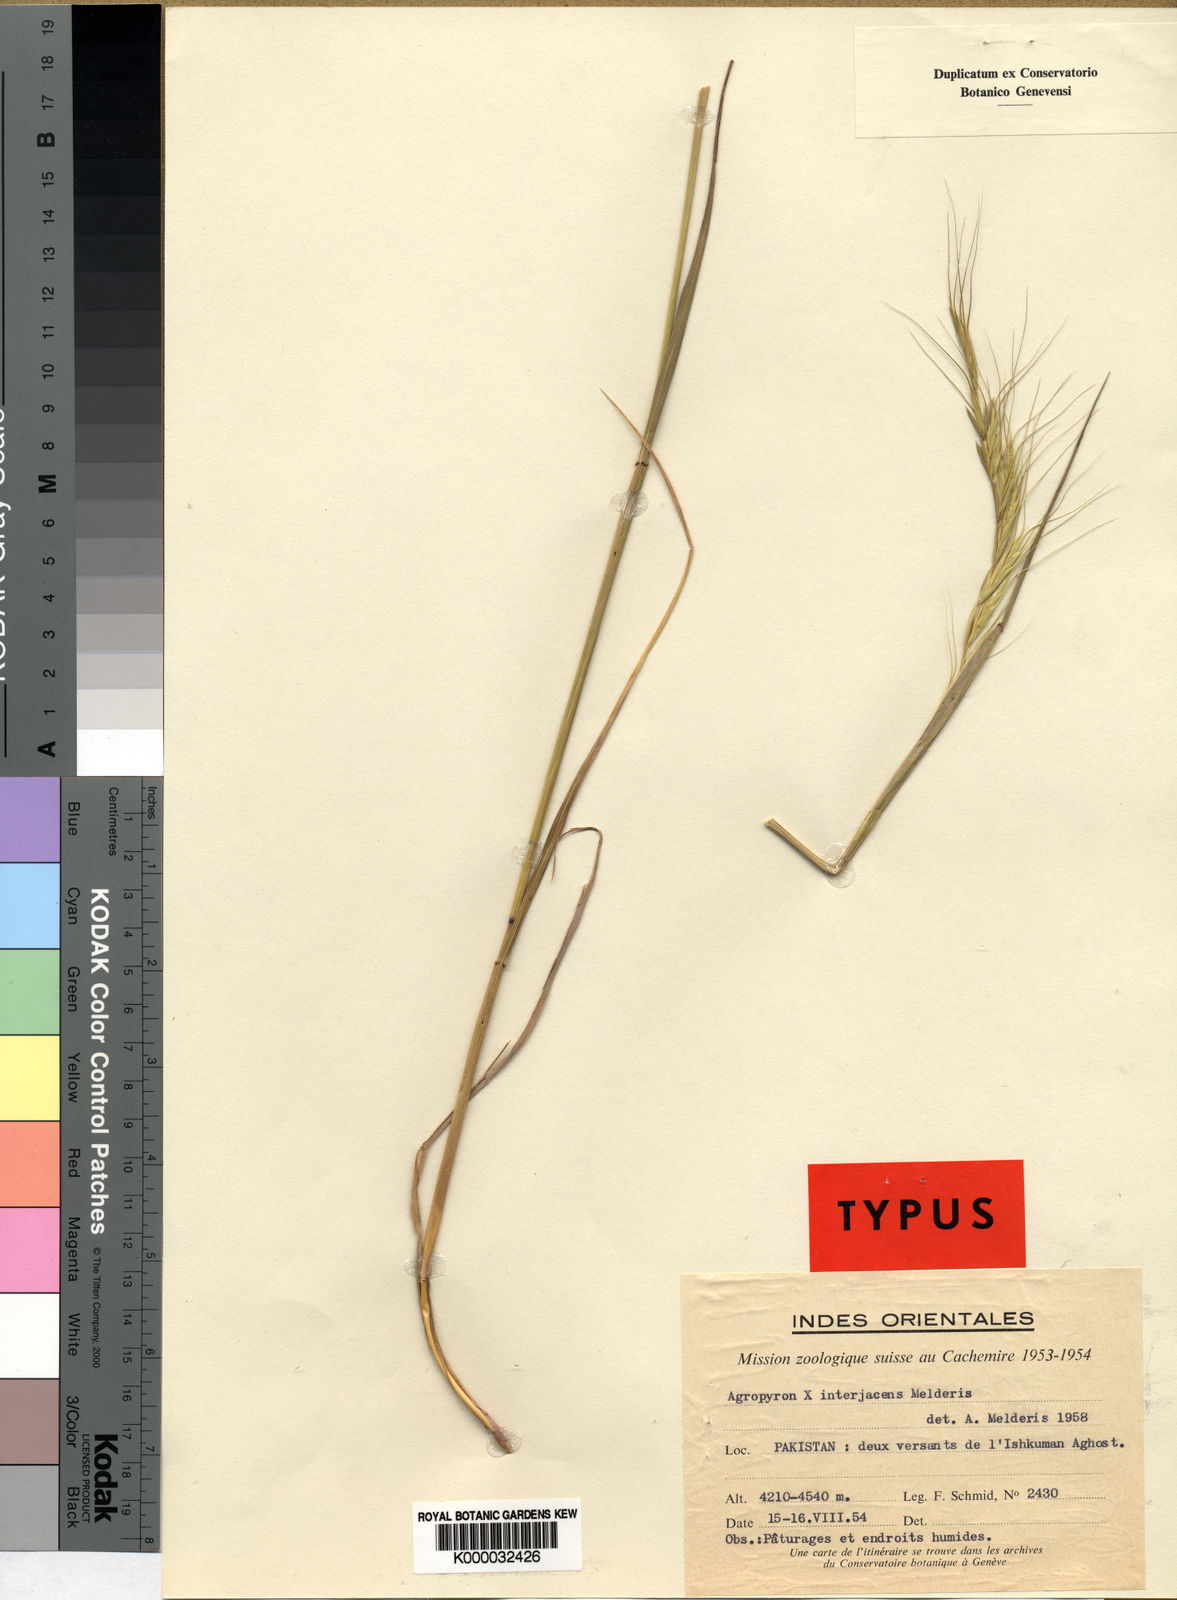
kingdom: Plantae
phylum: Tracheophyta
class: Liliopsida
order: Poales
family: Poaceae
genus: Elymus
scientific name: Elymus interjacens
